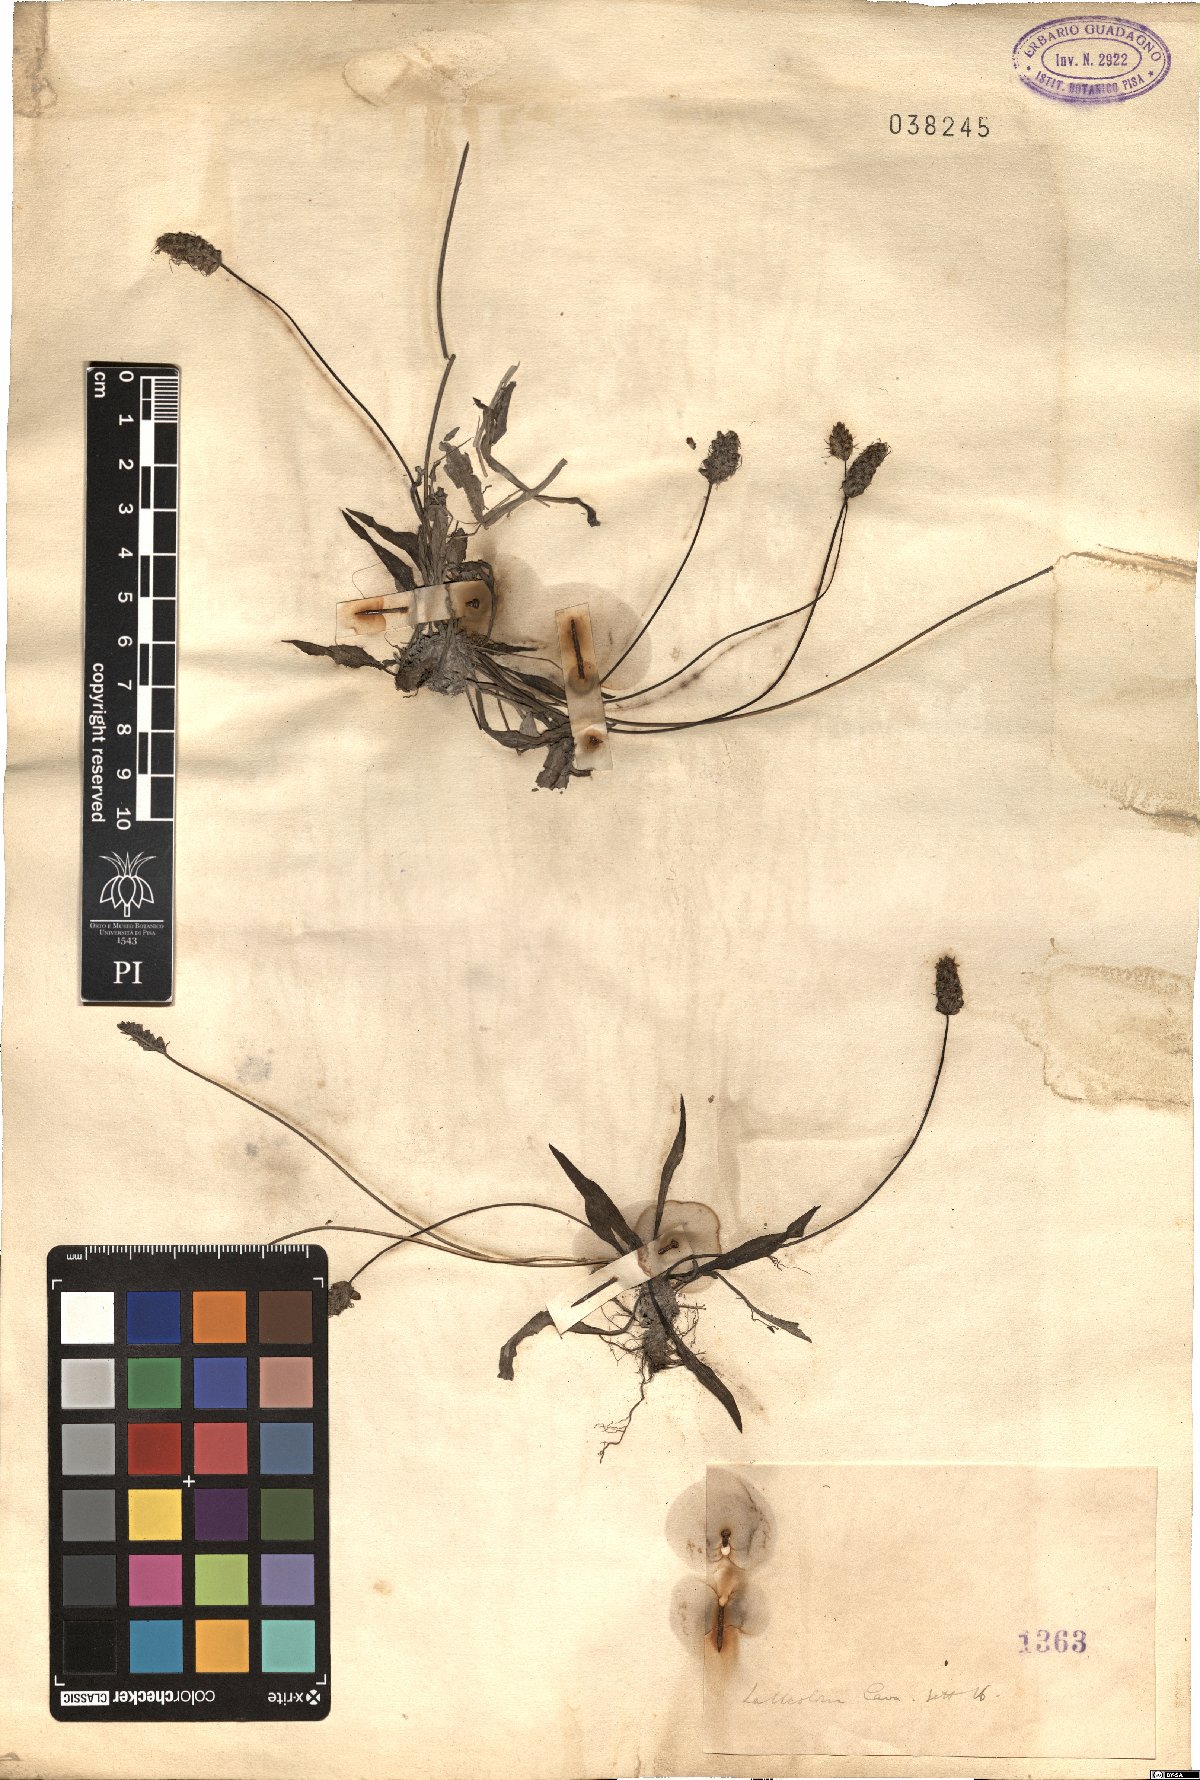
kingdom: Plantae
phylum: Tracheophyta
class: Magnoliopsida
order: Lamiales
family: Plantaginaceae
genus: Plantago
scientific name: Plantago
